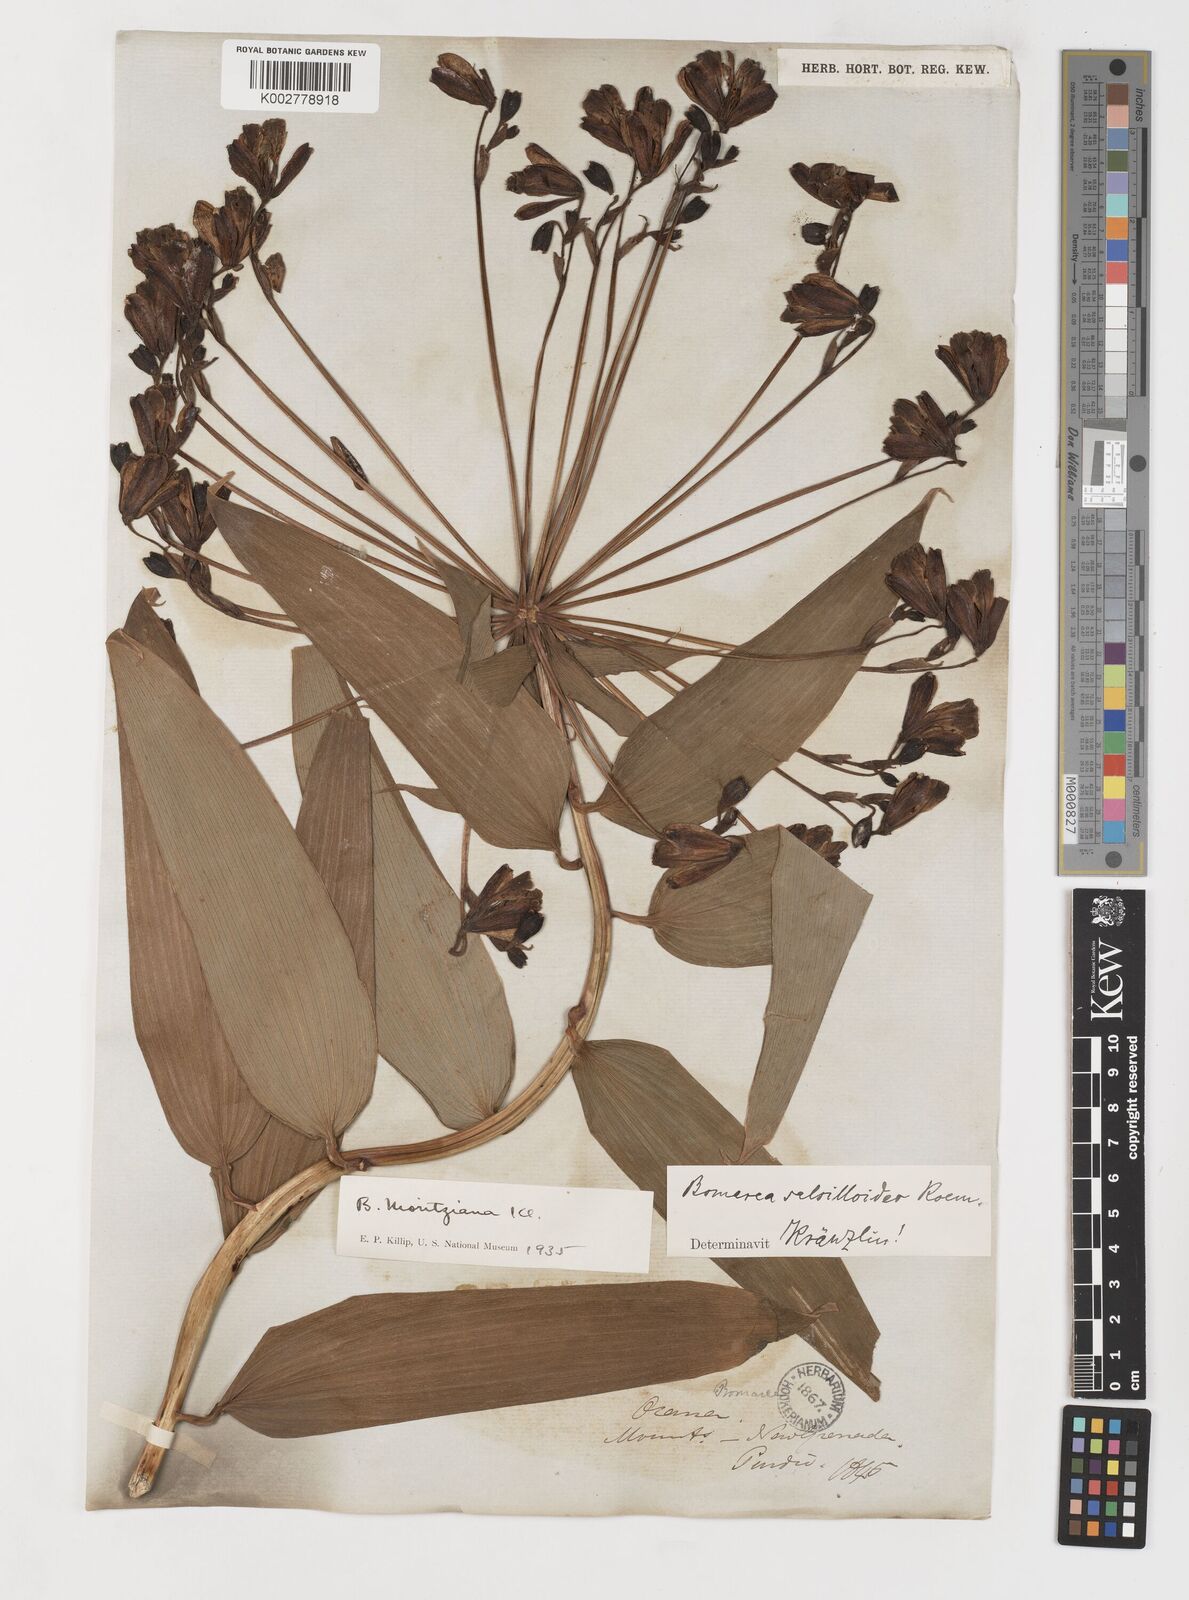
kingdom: Plantae
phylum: Tracheophyta
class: Liliopsida
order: Liliales
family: Alstroemeriaceae
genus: Bomarea
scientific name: Bomarea inaequalis
